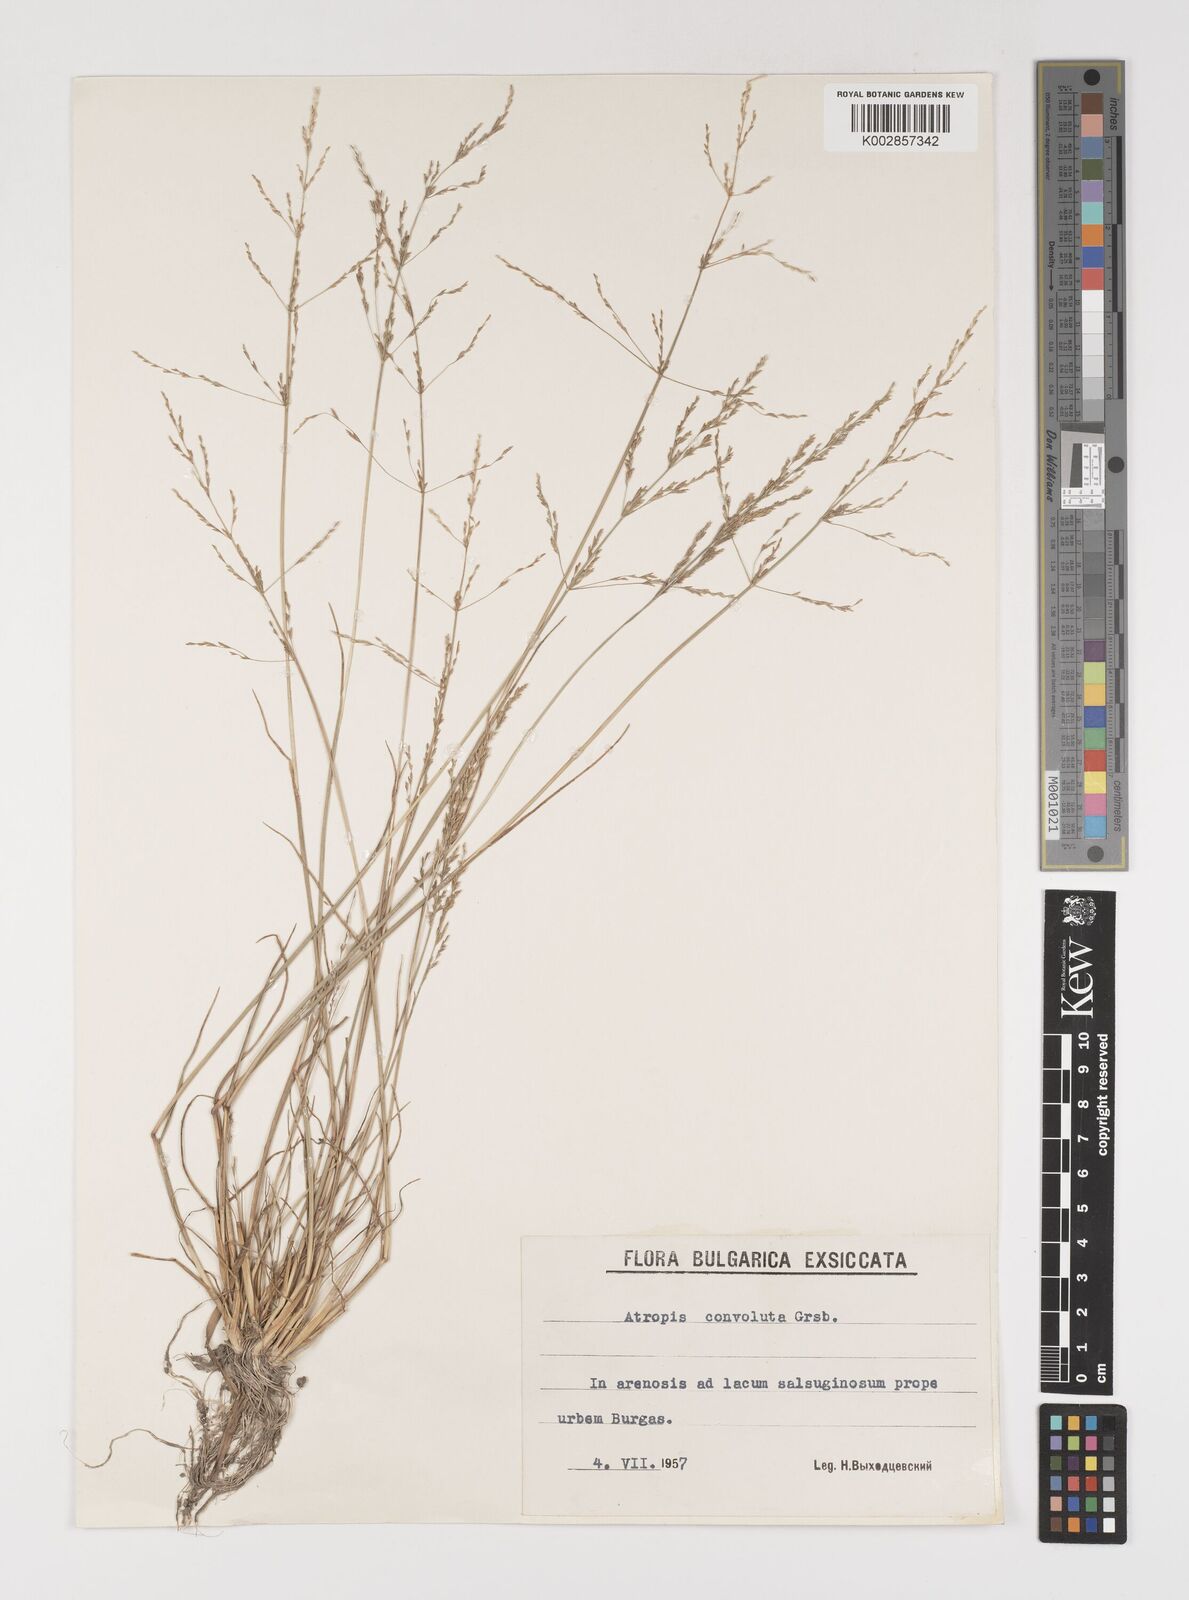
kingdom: Plantae
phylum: Tracheophyta
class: Liliopsida
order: Poales
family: Poaceae
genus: Puccinellia
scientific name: Puccinellia gigantea
